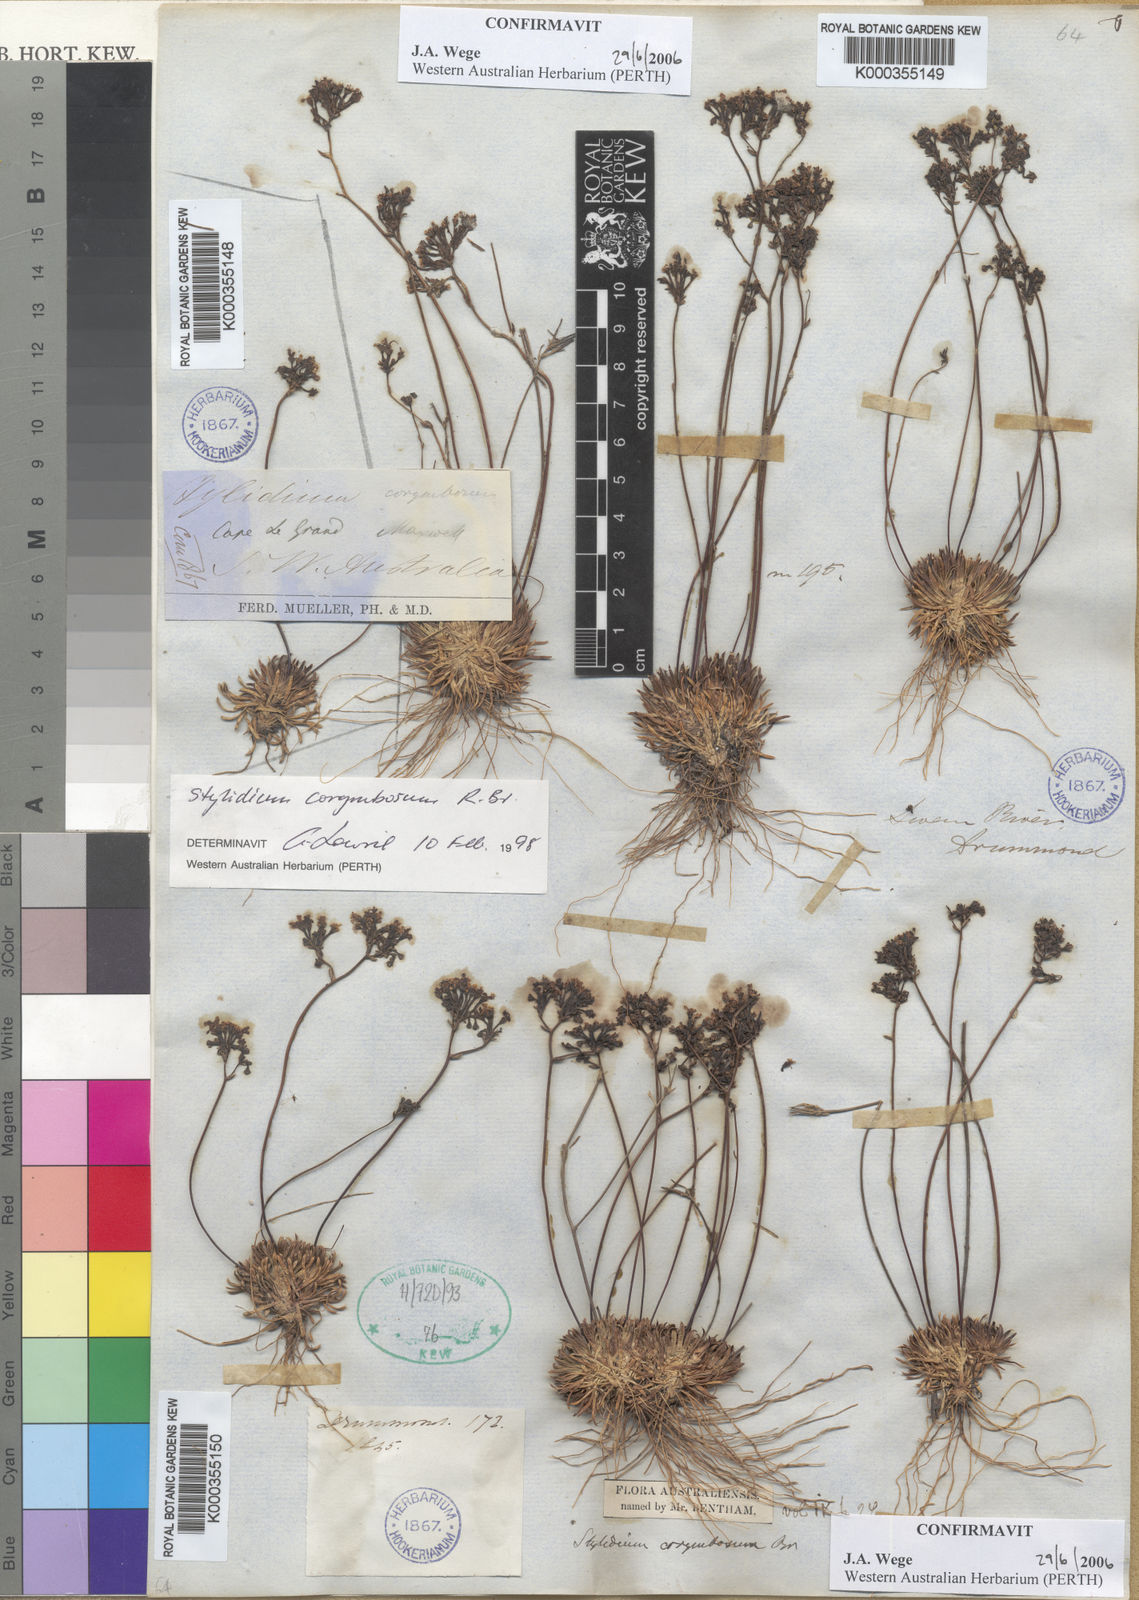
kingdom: Plantae
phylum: Tracheophyta
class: Magnoliopsida
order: Asterales
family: Stylidiaceae
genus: Stylidium
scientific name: Stylidium corymbosum
